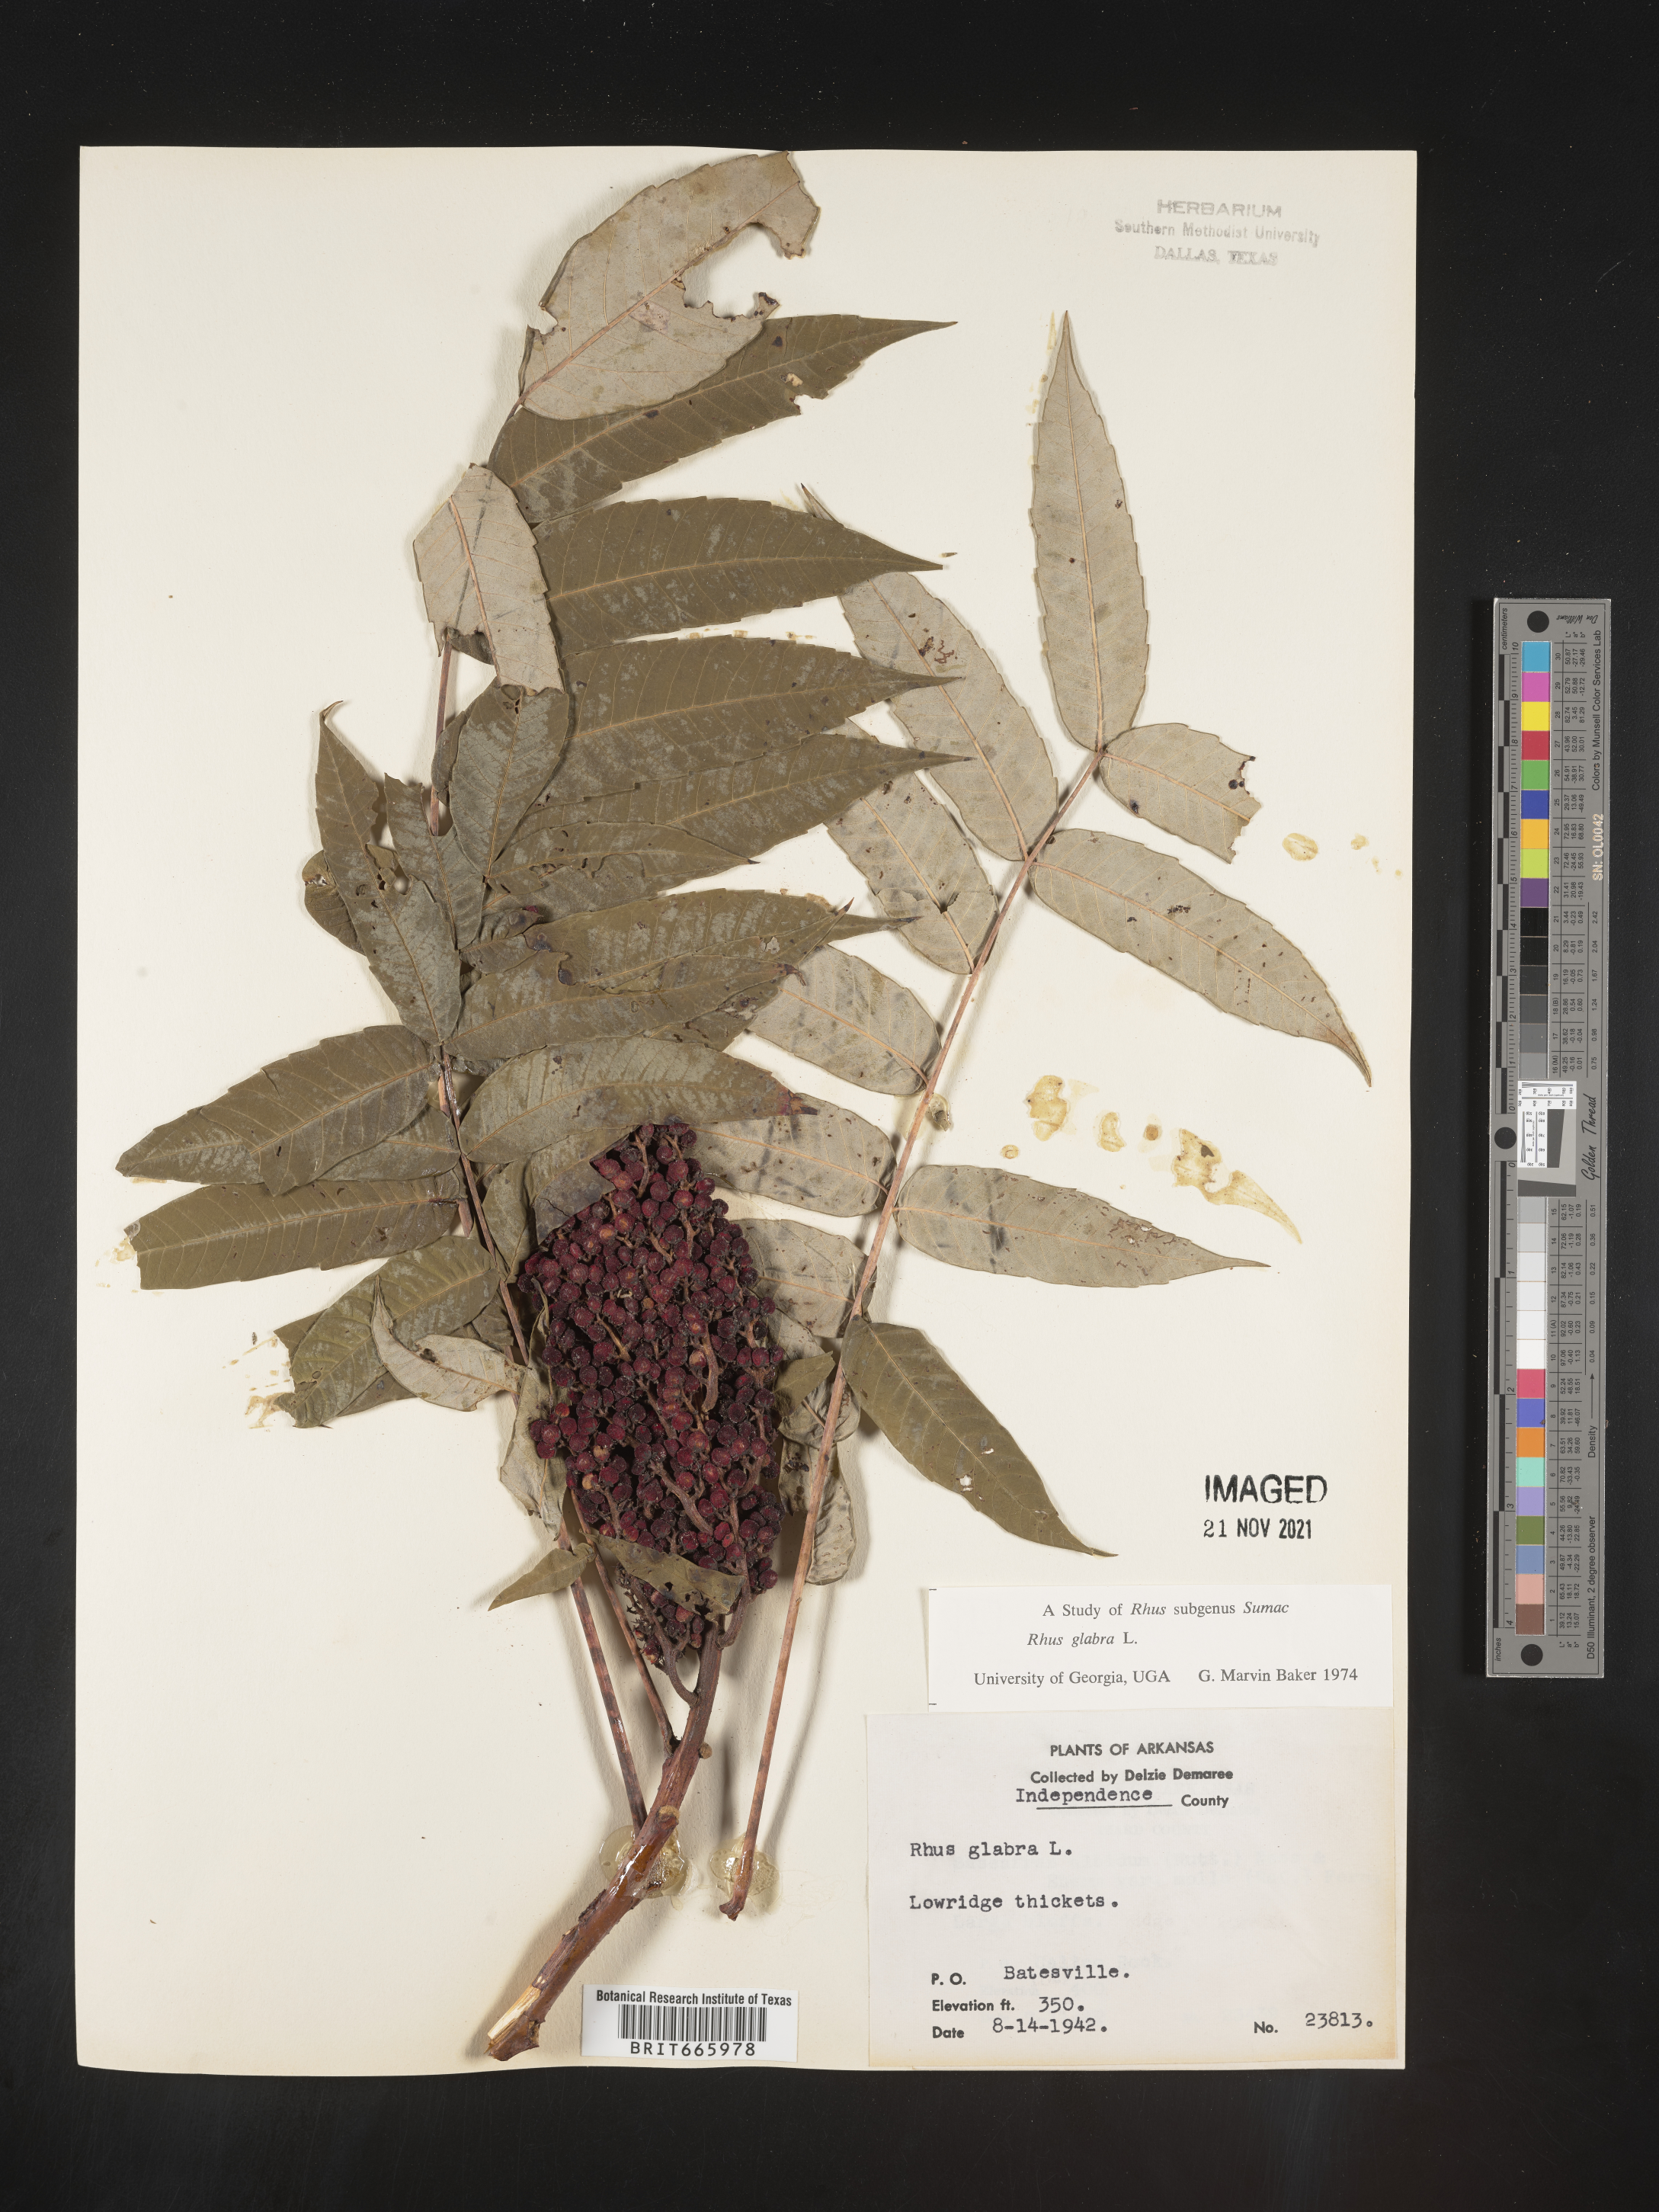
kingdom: Plantae
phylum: Tracheophyta
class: Magnoliopsida
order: Sapindales
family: Anacardiaceae
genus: Rhus
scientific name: Rhus glabra
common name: Scarlet sumac
